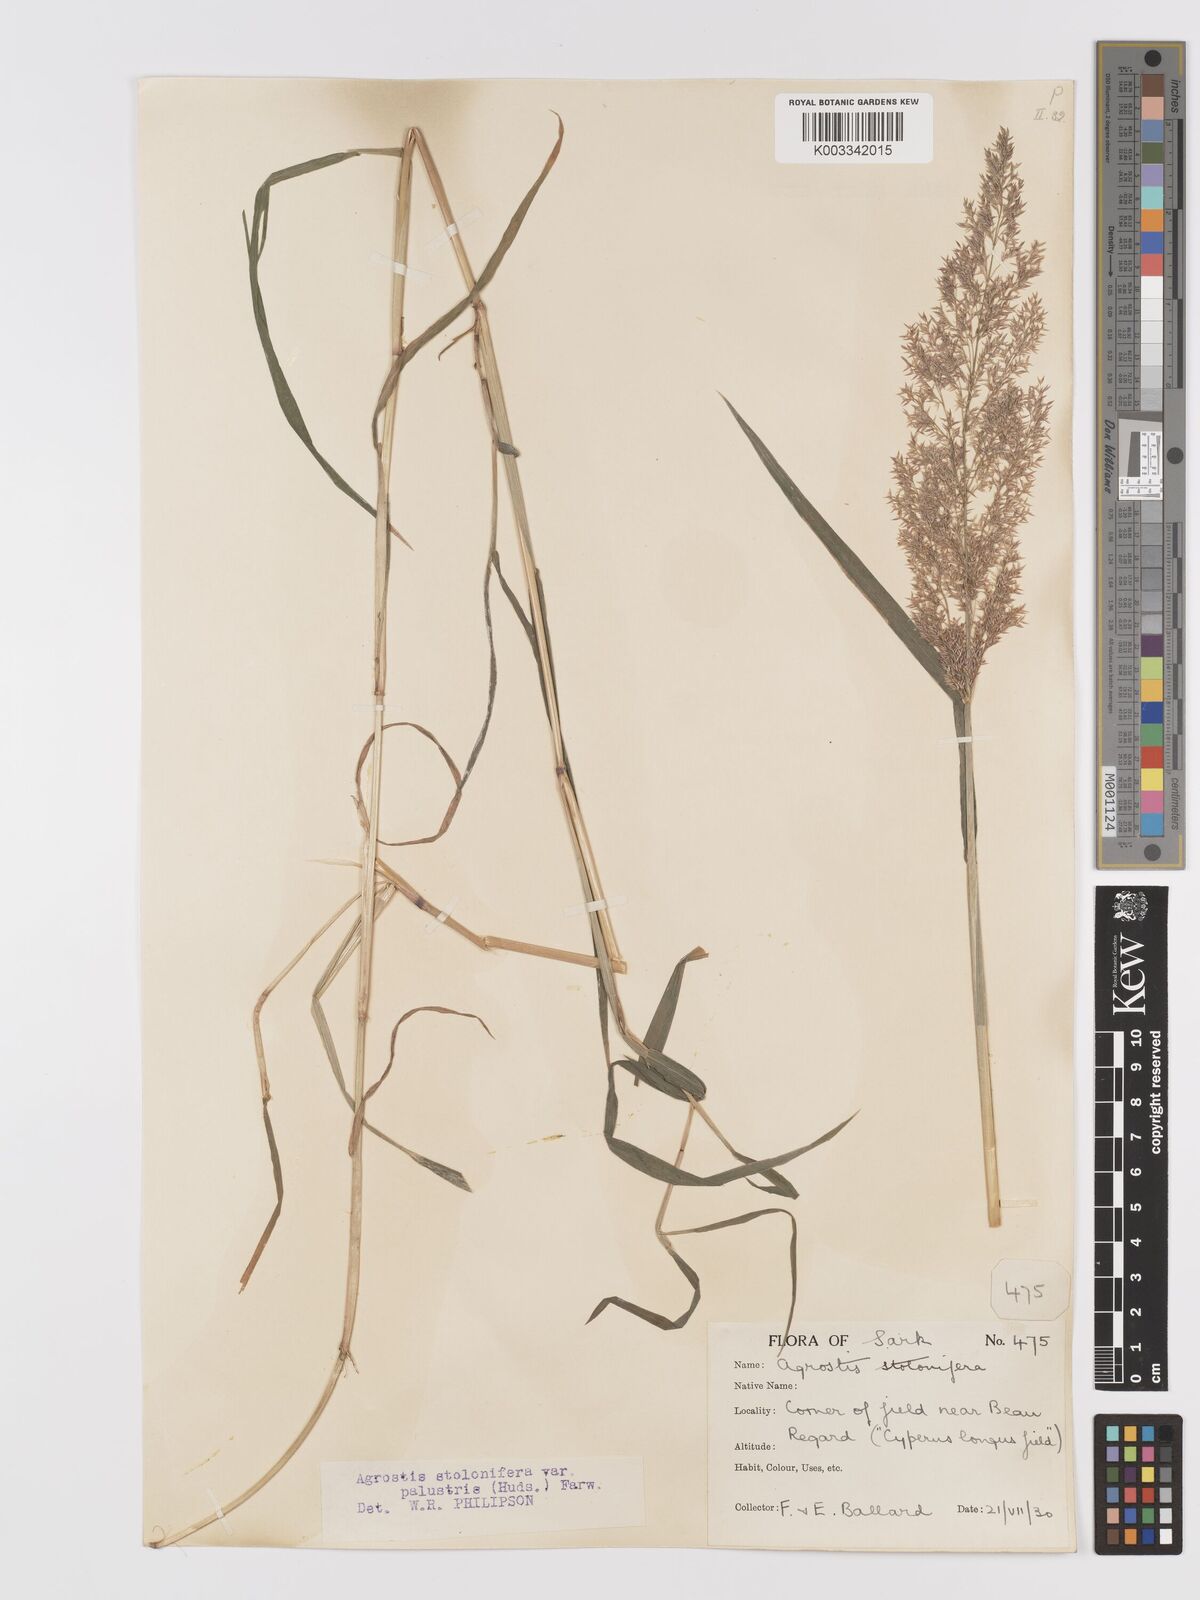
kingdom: Plantae
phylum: Tracheophyta
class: Liliopsida
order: Poales
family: Poaceae
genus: Agrostis
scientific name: Agrostis stolonifera
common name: Creeping bentgrass
